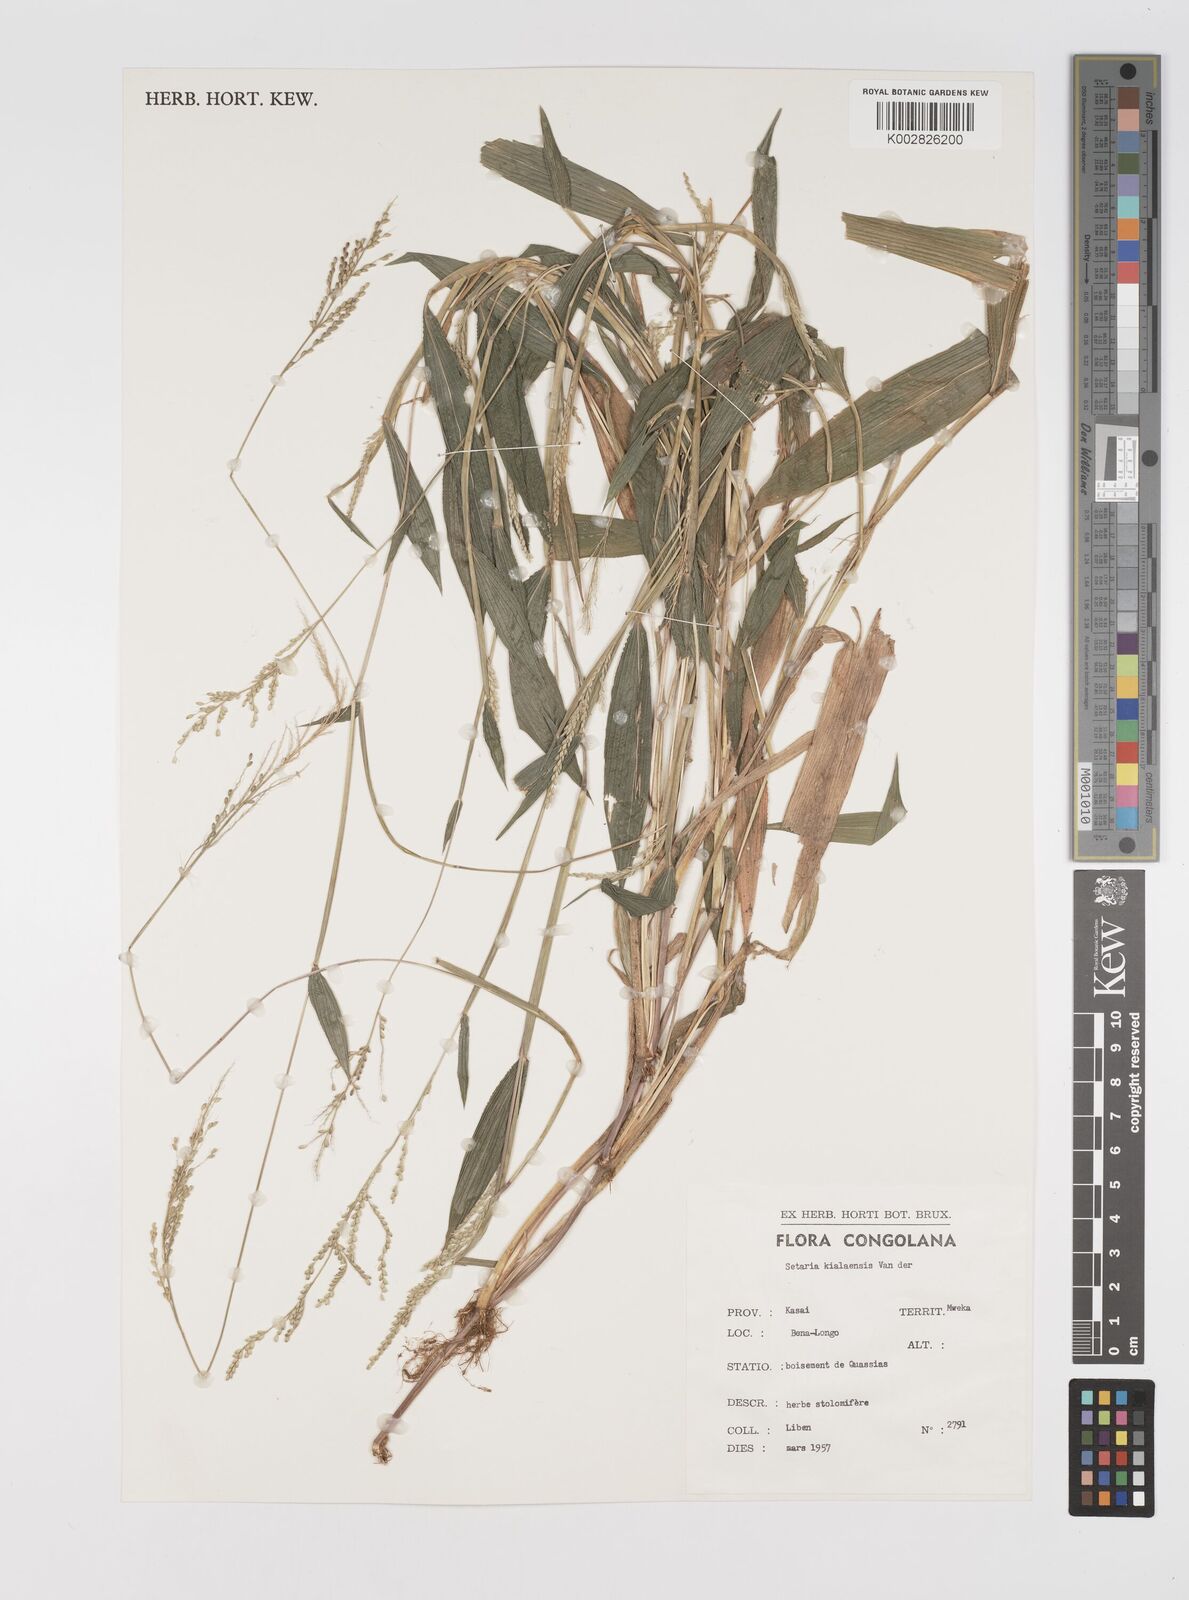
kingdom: Plantae
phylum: Tracheophyta
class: Liliopsida
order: Poales
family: Poaceae
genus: Setaria
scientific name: Setaria homonyma
